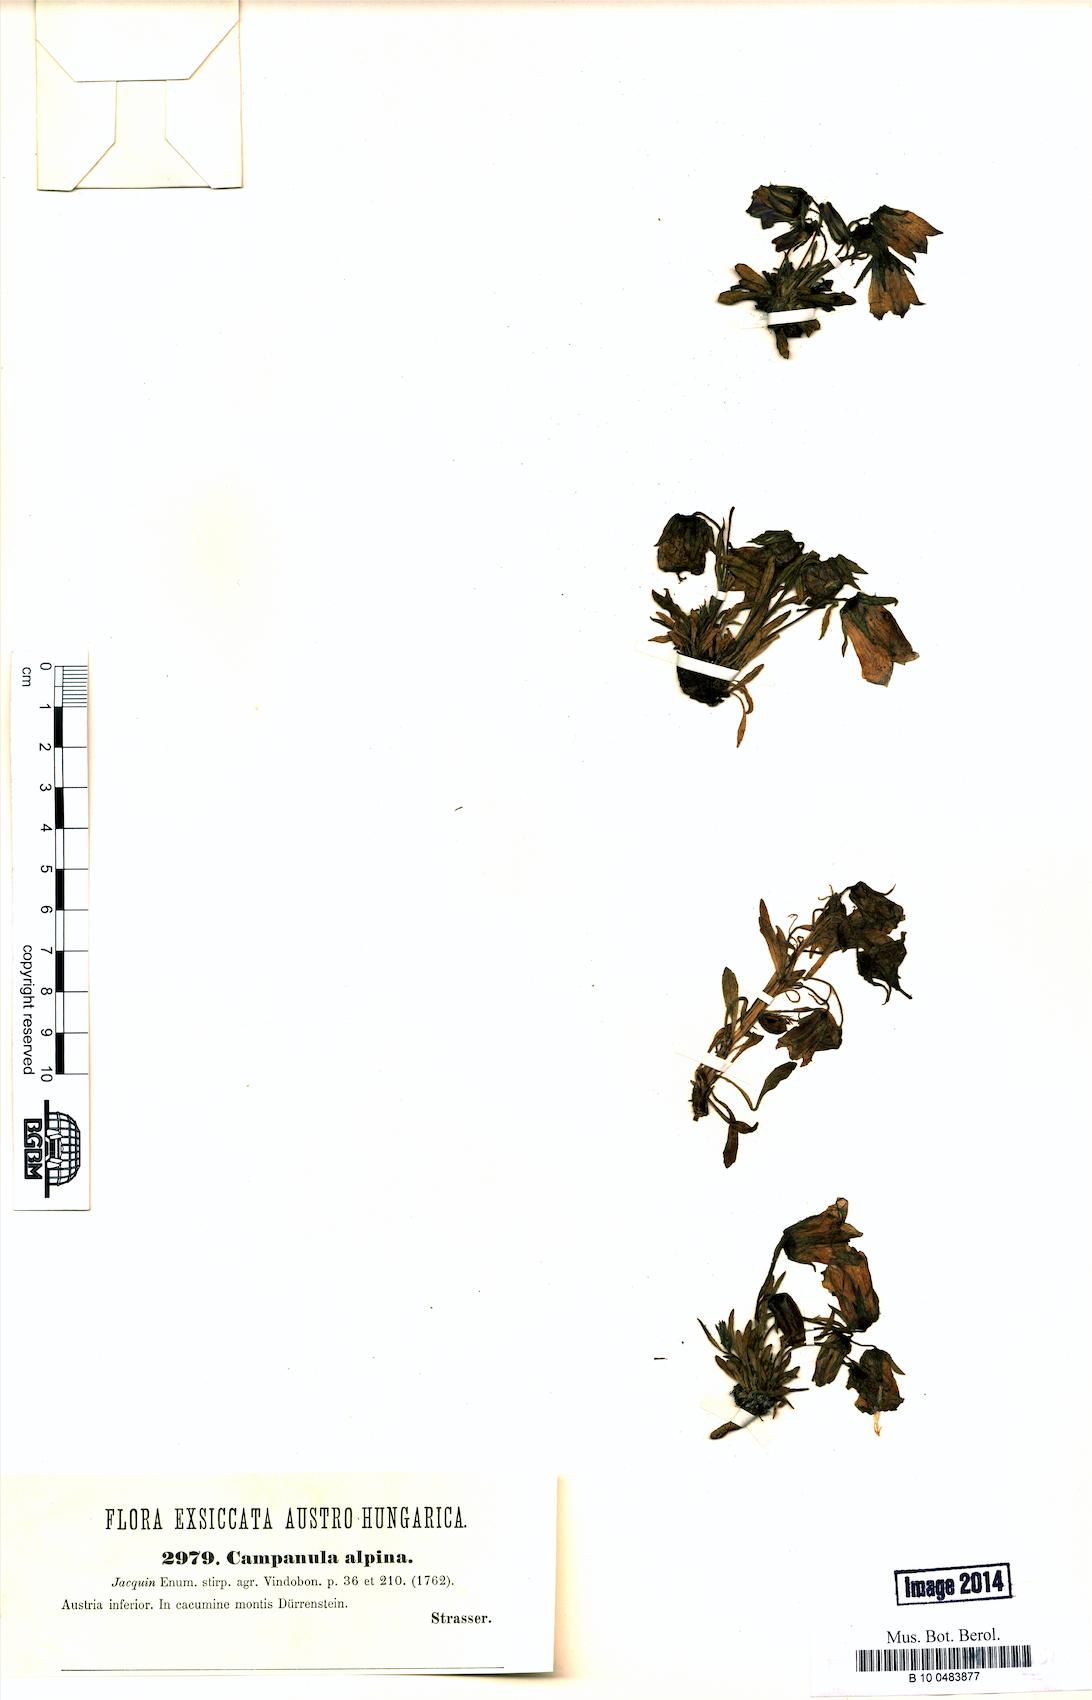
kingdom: Plantae
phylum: Tracheophyta
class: Magnoliopsida
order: Asterales
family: Campanulaceae
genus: Campanula
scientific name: Campanula alpina
